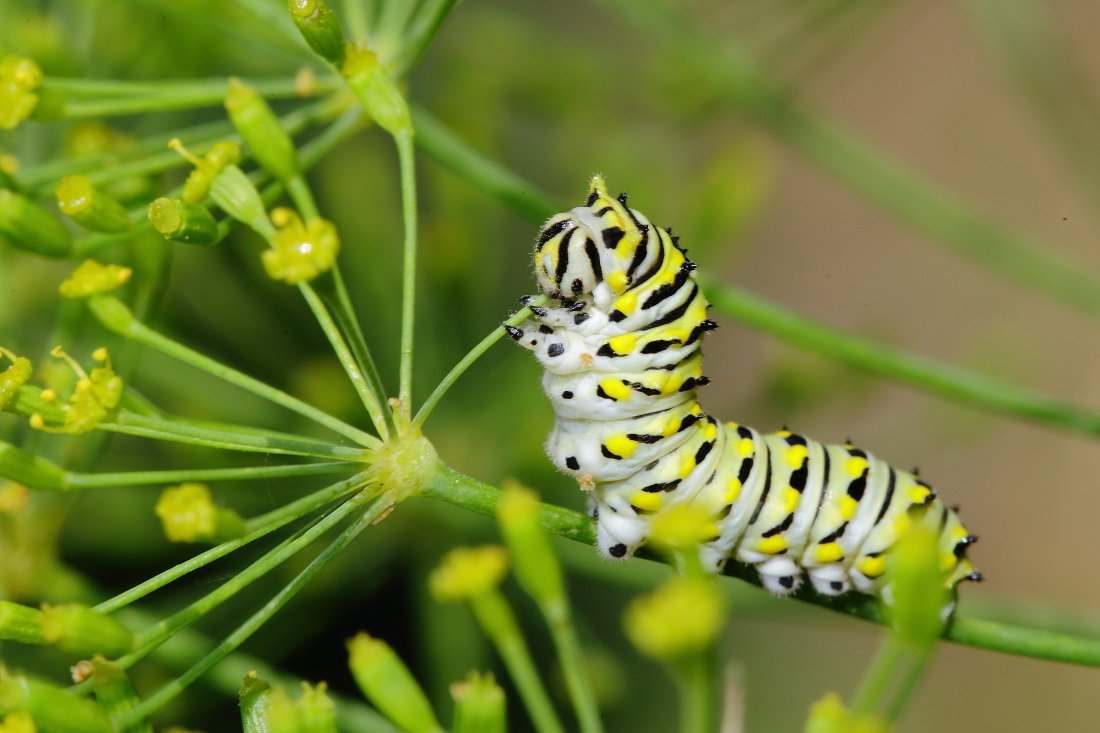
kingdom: Animalia
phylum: Arthropoda
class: Insecta
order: Lepidoptera
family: Papilionidae
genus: Papilio
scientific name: Papilio polyxenes
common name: Black Swallowtail
